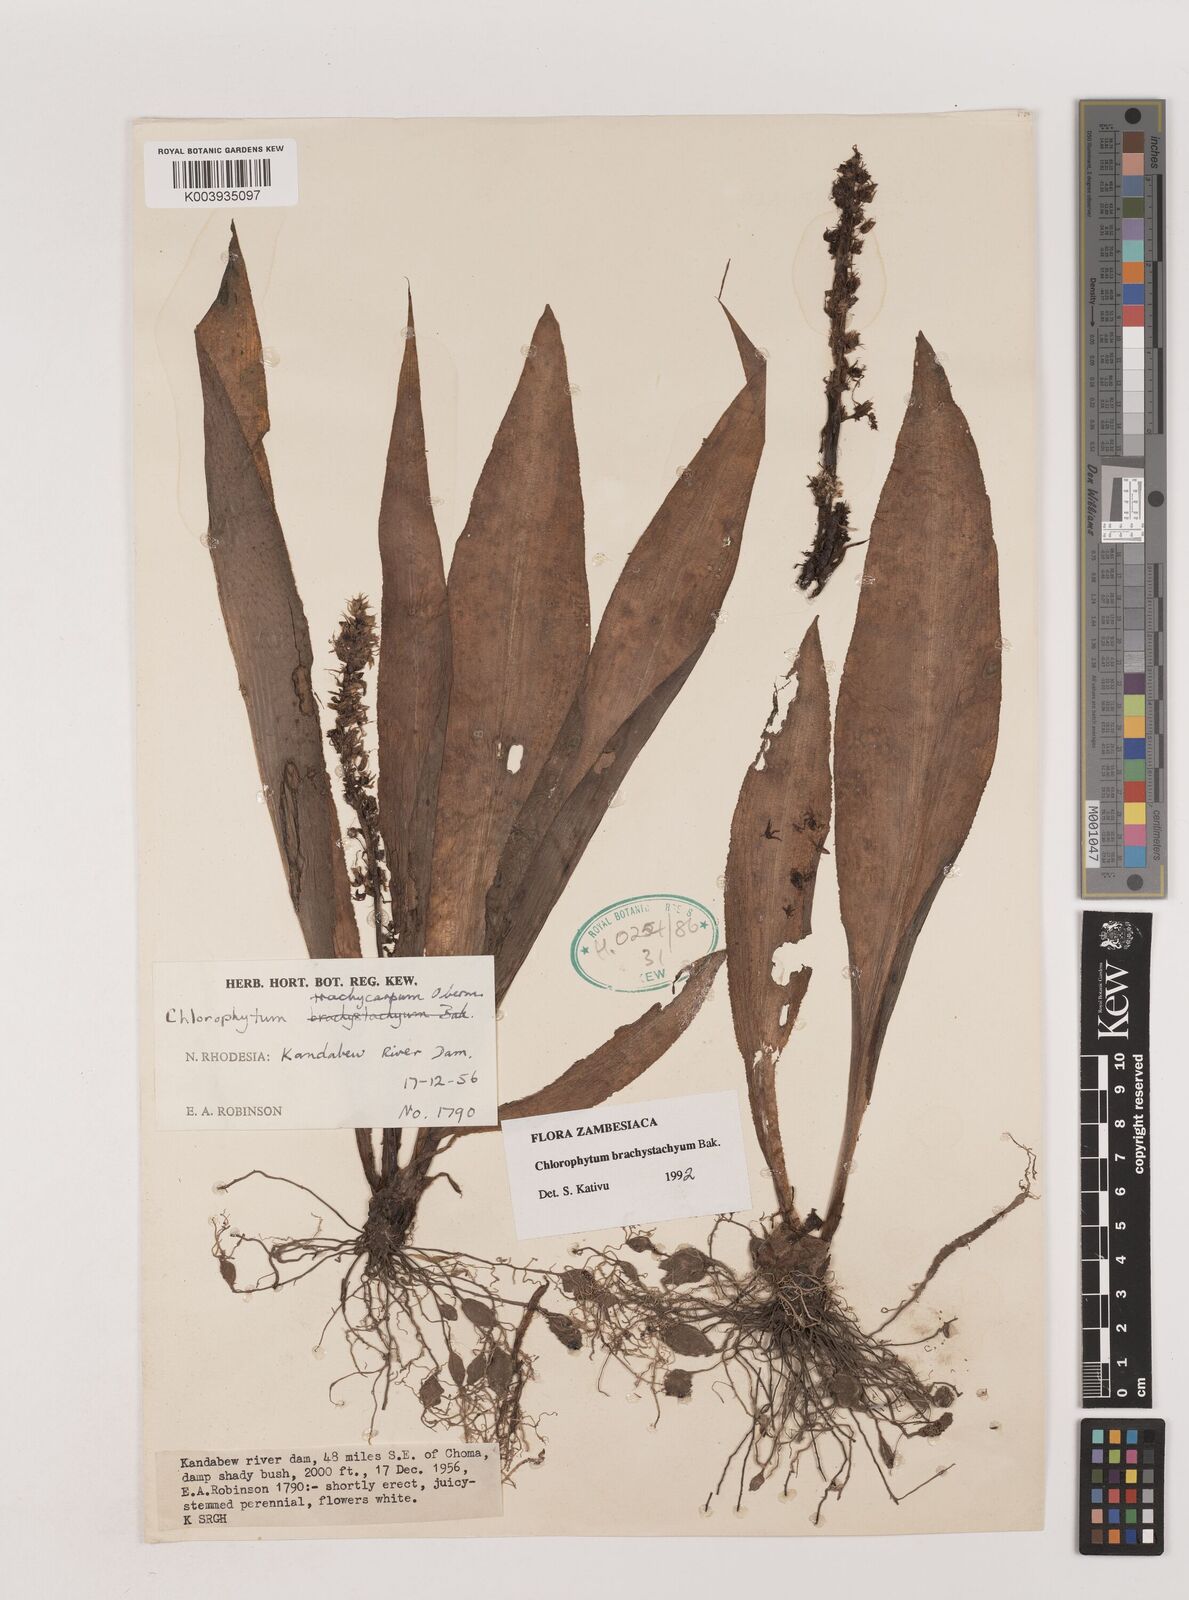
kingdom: Plantae
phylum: Tracheophyta
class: Liliopsida
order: Asparagales
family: Asparagaceae
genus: Chlorophytum
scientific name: Chlorophytum brachystachyum
